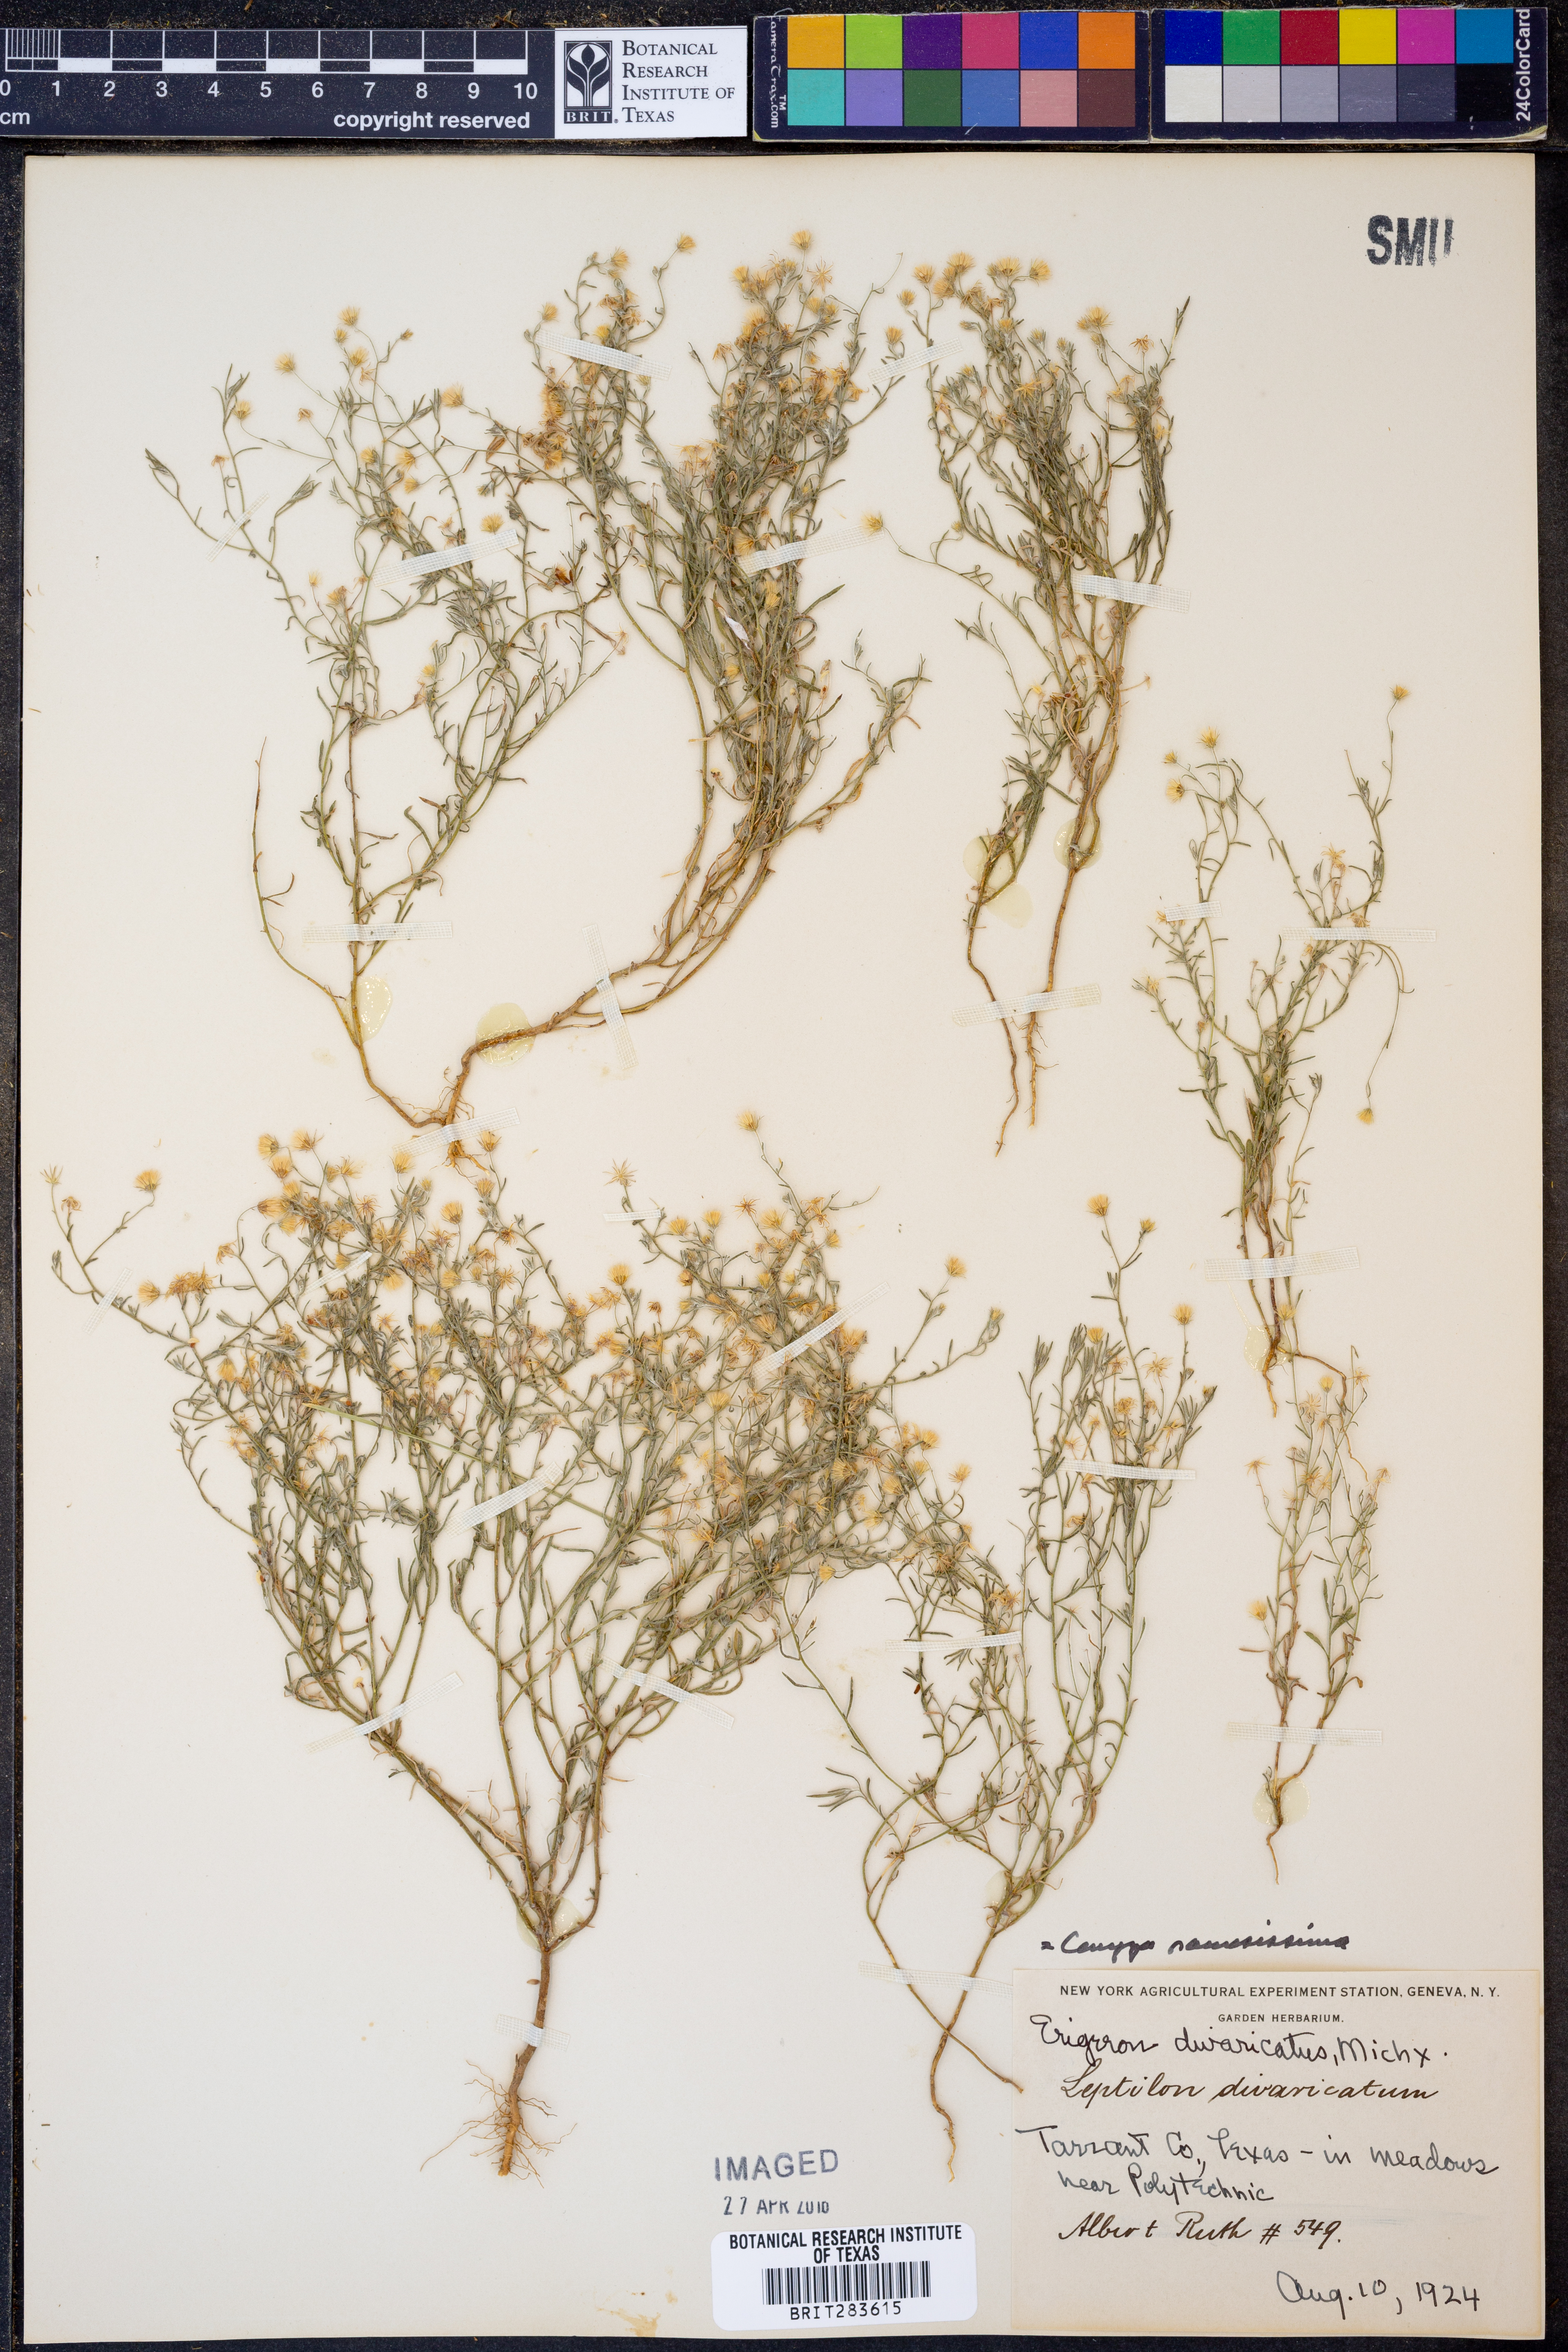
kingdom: Plantae
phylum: Tracheophyta
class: Magnoliopsida
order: Asterales
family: Asteraceae
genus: Erigeron
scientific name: Erigeron divaricatus
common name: Dwarf conyza
